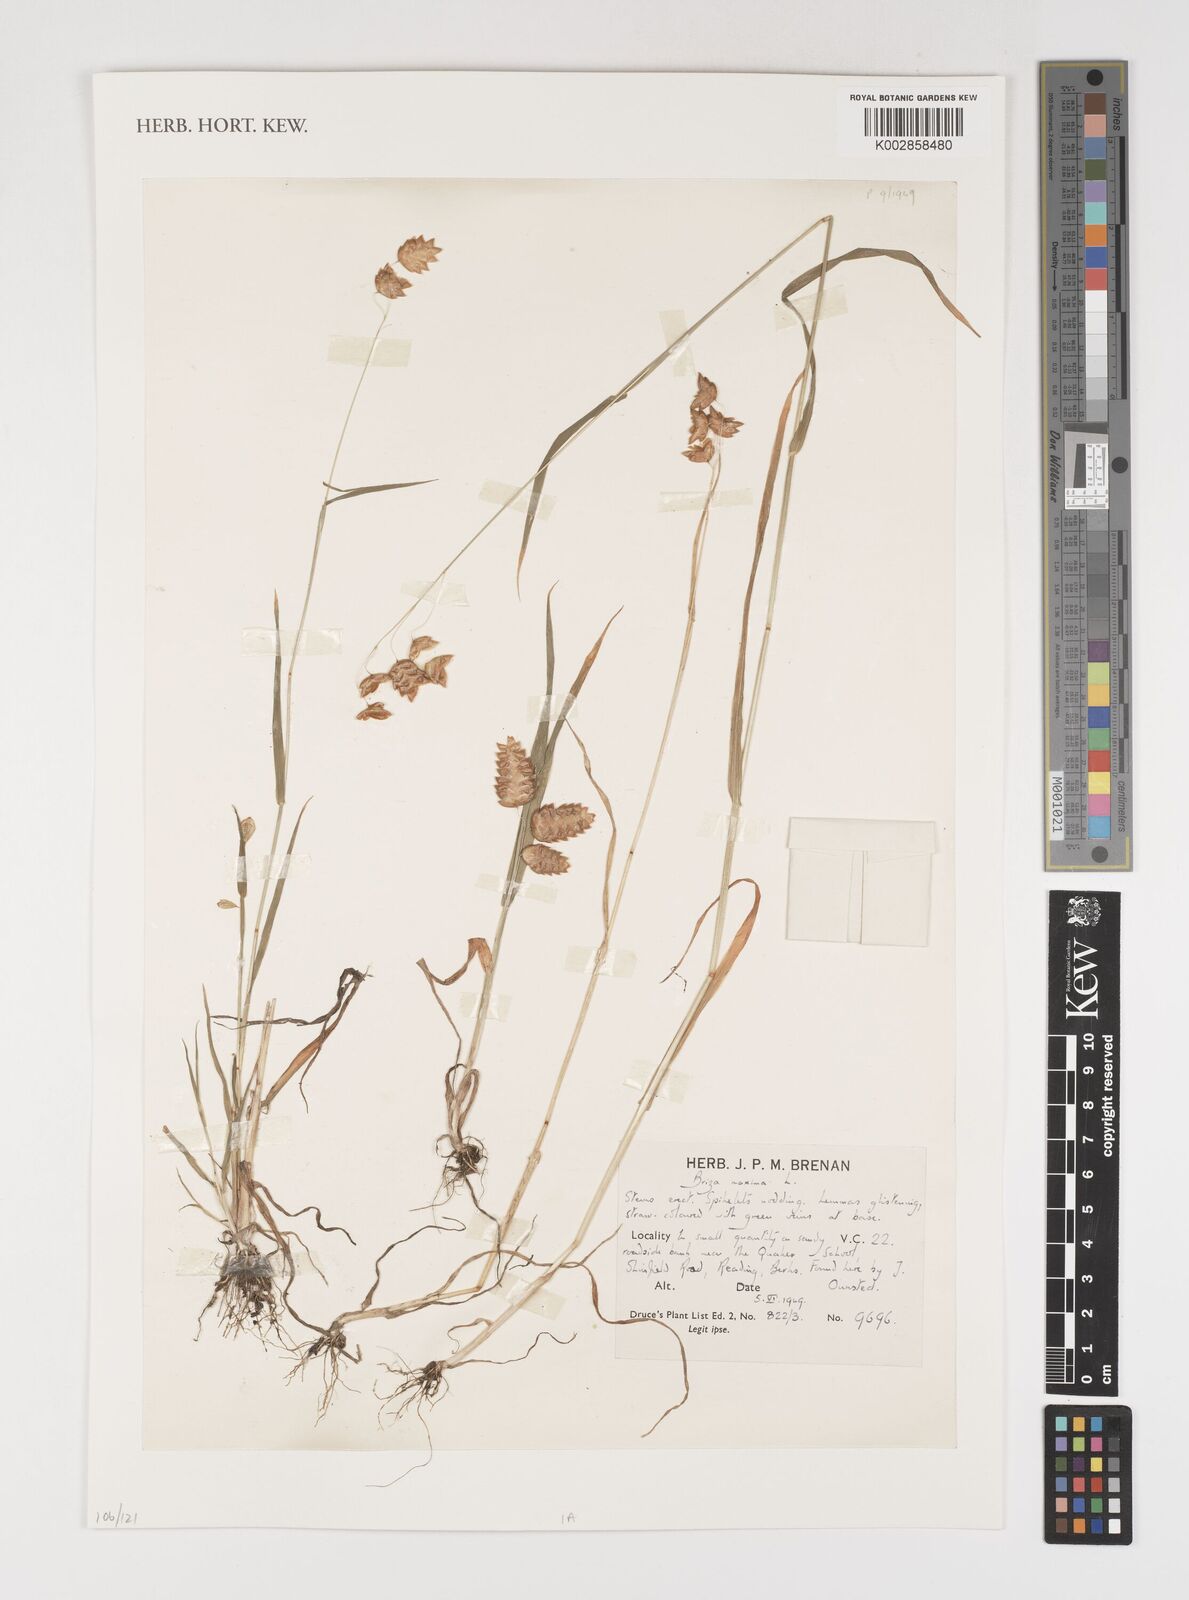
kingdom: Plantae
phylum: Tracheophyta
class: Liliopsida
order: Poales
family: Poaceae
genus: Briza
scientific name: Briza maxima
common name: Big quakinggrass
